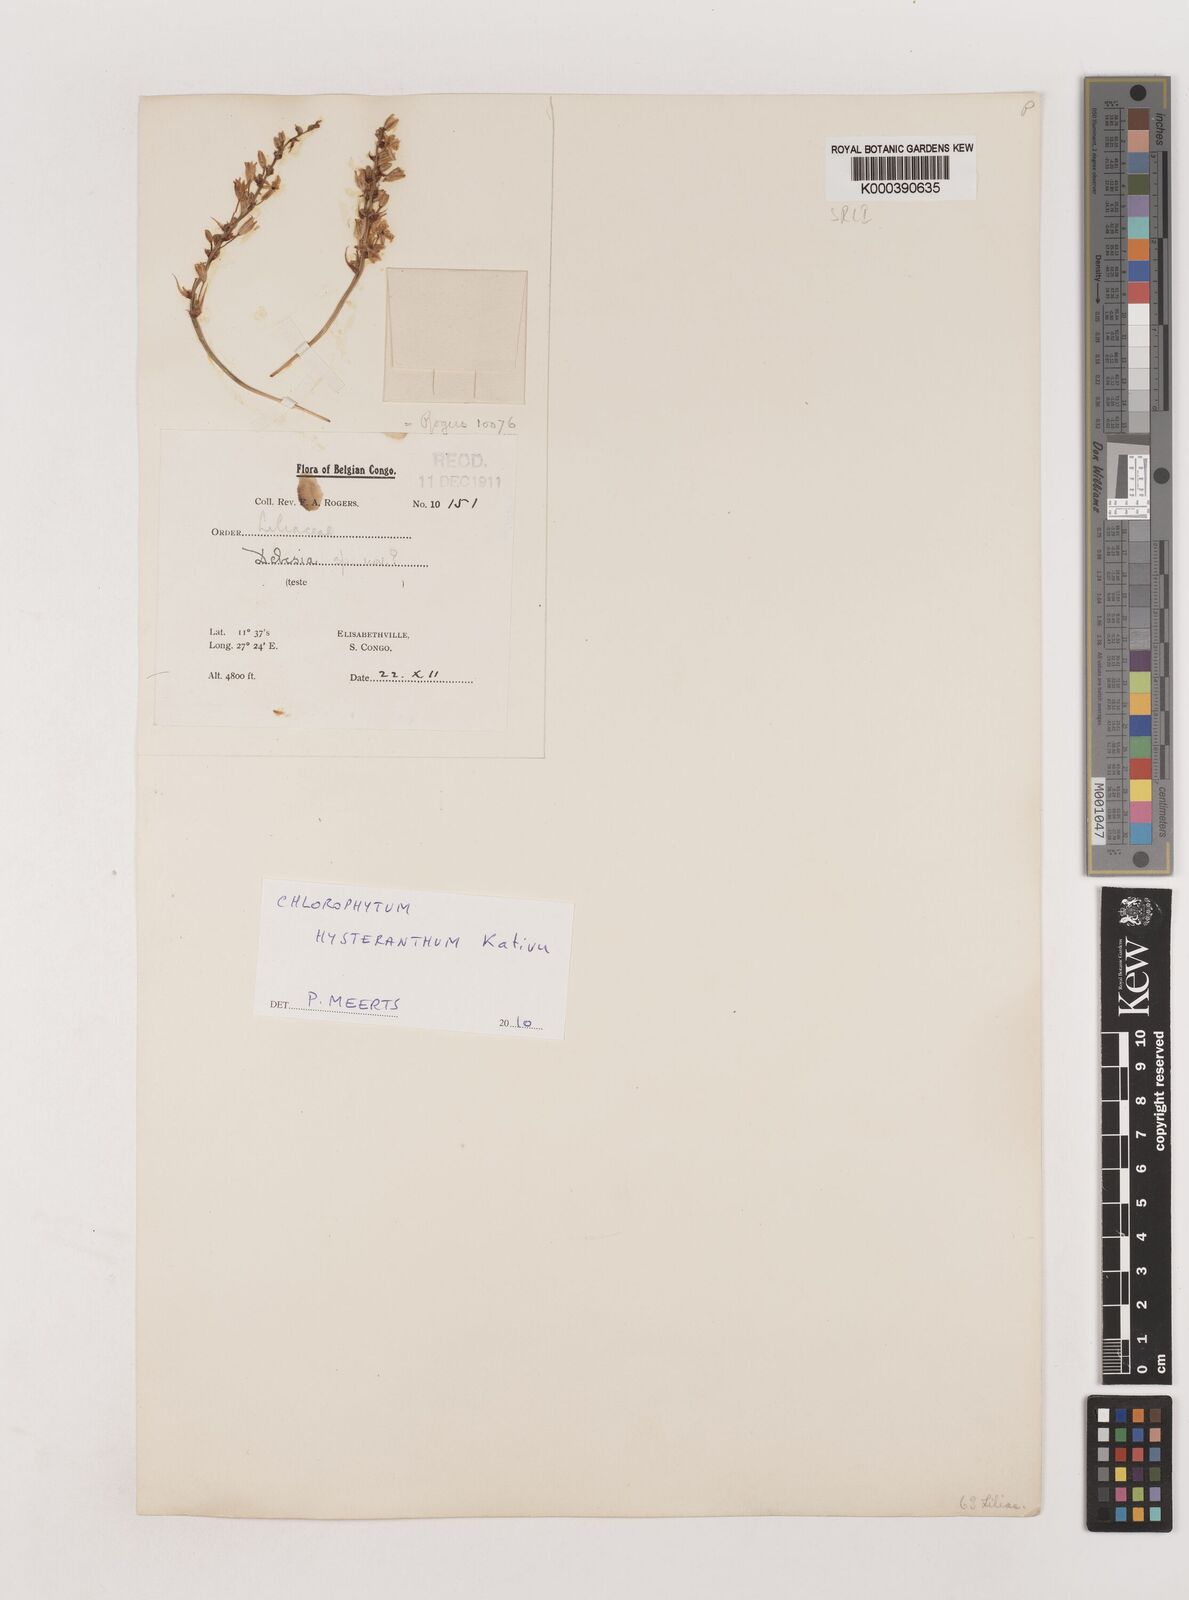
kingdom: Plantae
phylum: Tracheophyta
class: Liliopsida
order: Asparagales
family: Asparagaceae
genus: Chlorophytum
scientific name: Chlorophytum hysteranthum
